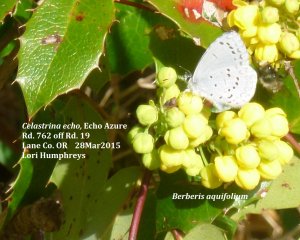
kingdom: Animalia
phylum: Arthropoda
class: Insecta
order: Lepidoptera
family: Lycaenidae
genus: Celastrina
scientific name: Celastrina ladon
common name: Spring Azure
